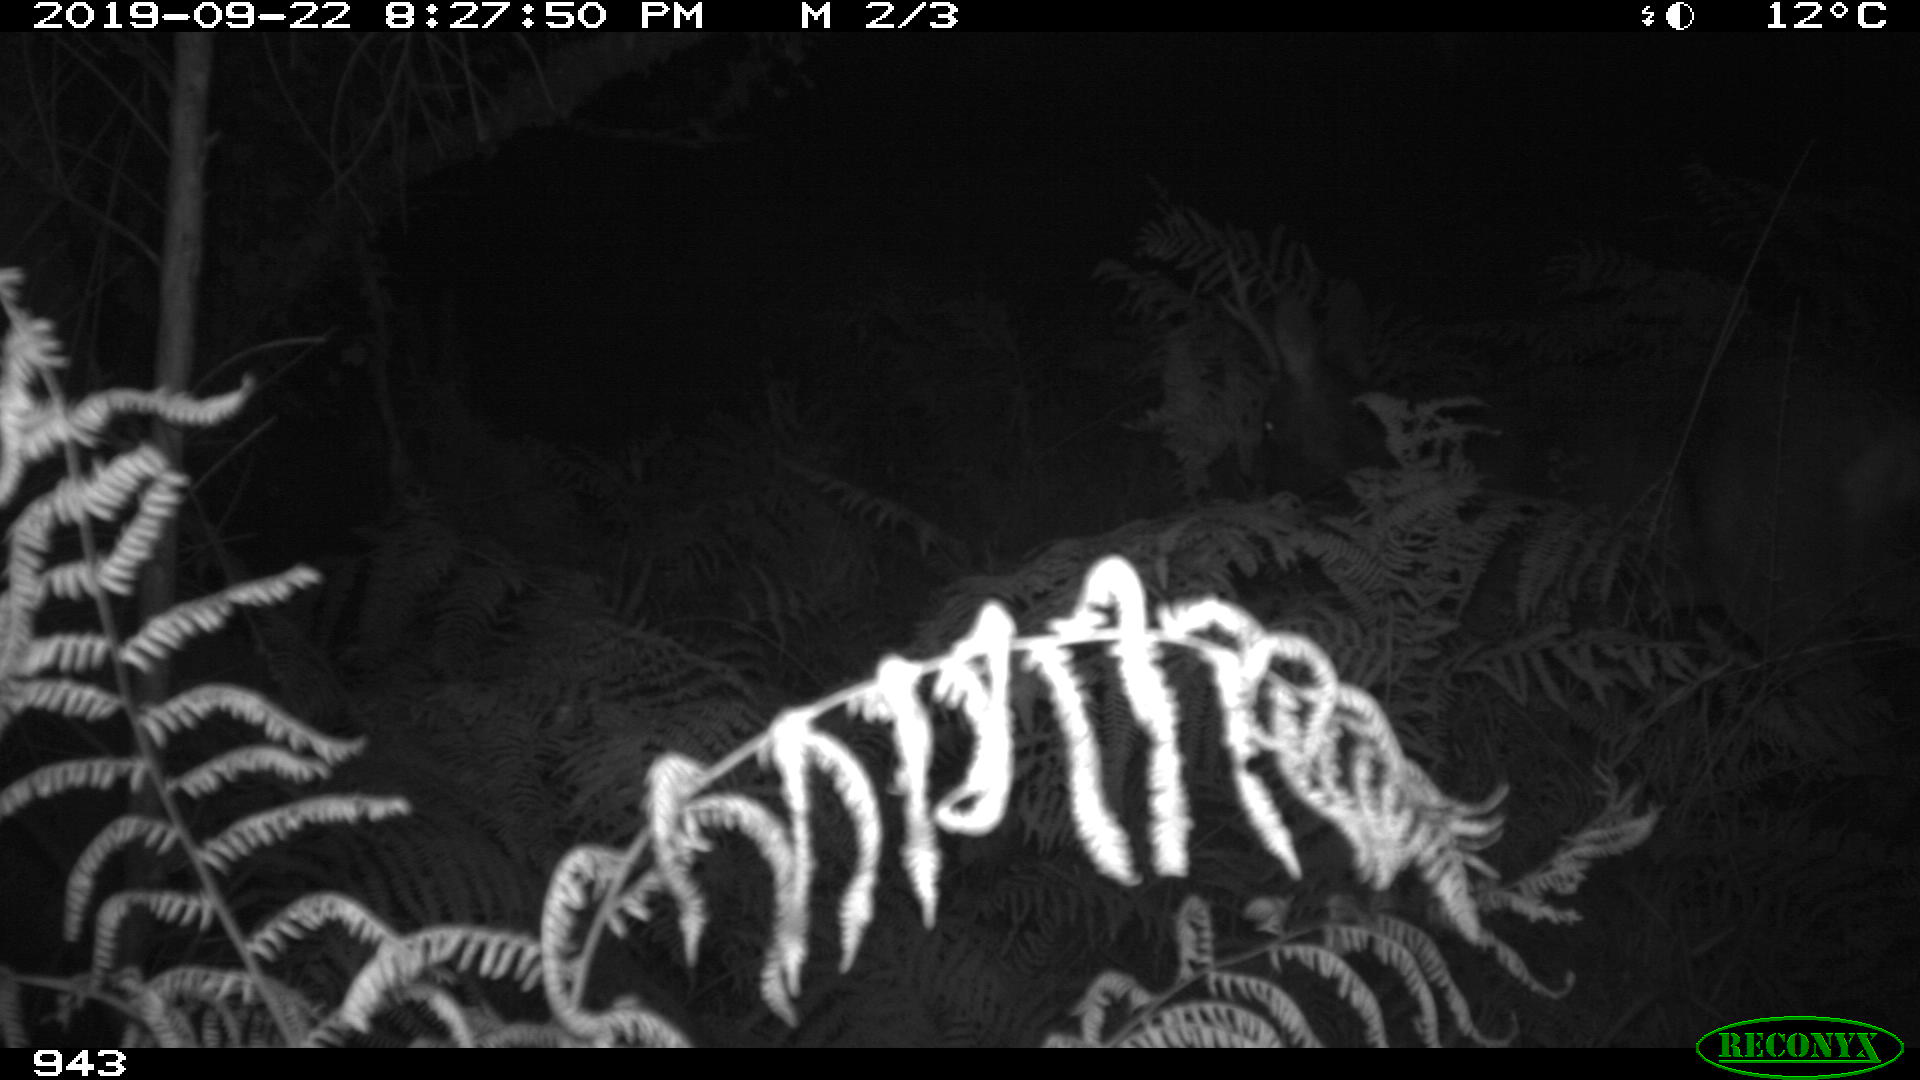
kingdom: Animalia
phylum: Chordata
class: Mammalia
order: Artiodactyla
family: Cervidae
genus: Capreolus
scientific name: Capreolus capreolus
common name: Western roe deer
